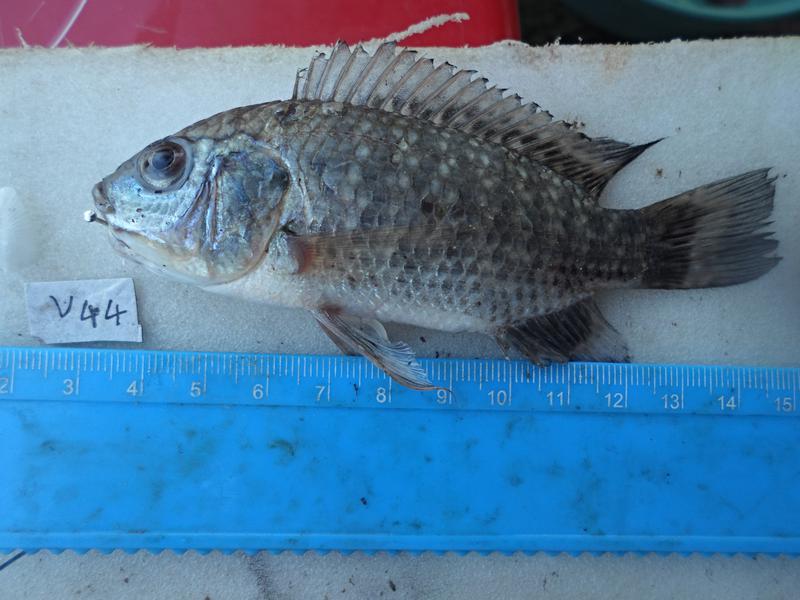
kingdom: Animalia
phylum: Chordata
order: Perciformes
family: Cichlidae
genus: Oreochromis
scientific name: Oreochromis leucostictus
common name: Blue spotted tilapia
